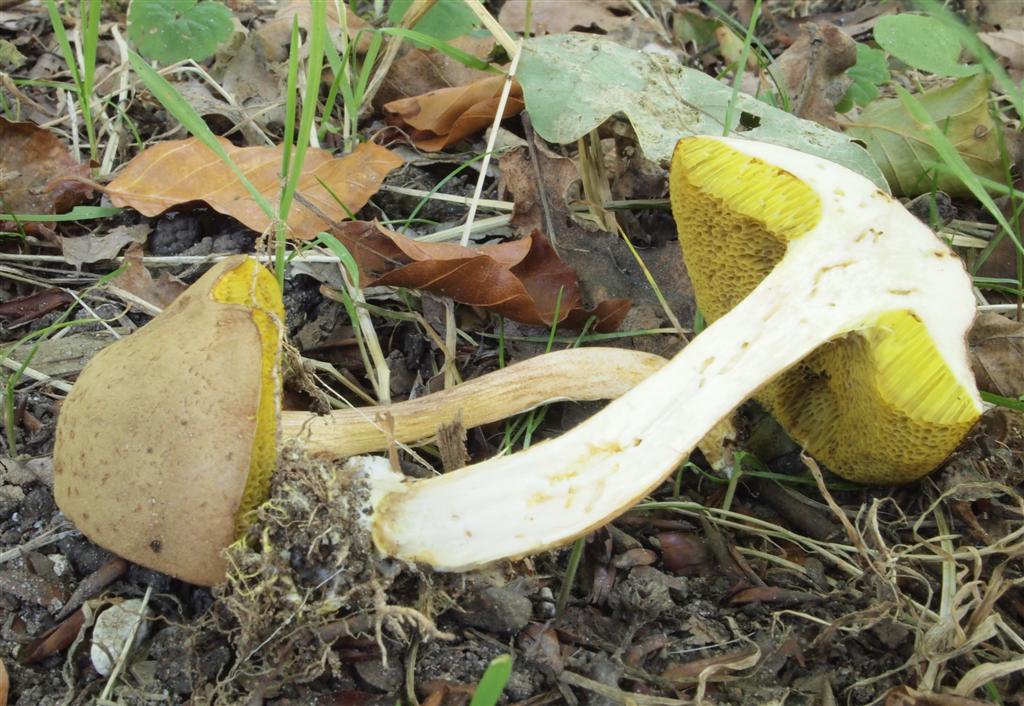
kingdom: Fungi
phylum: Basidiomycota
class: Agaricomycetes
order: Boletales
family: Boletaceae
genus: Xerocomus
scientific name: Xerocomus ferrugineus
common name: vaskeskinds-rørhat
